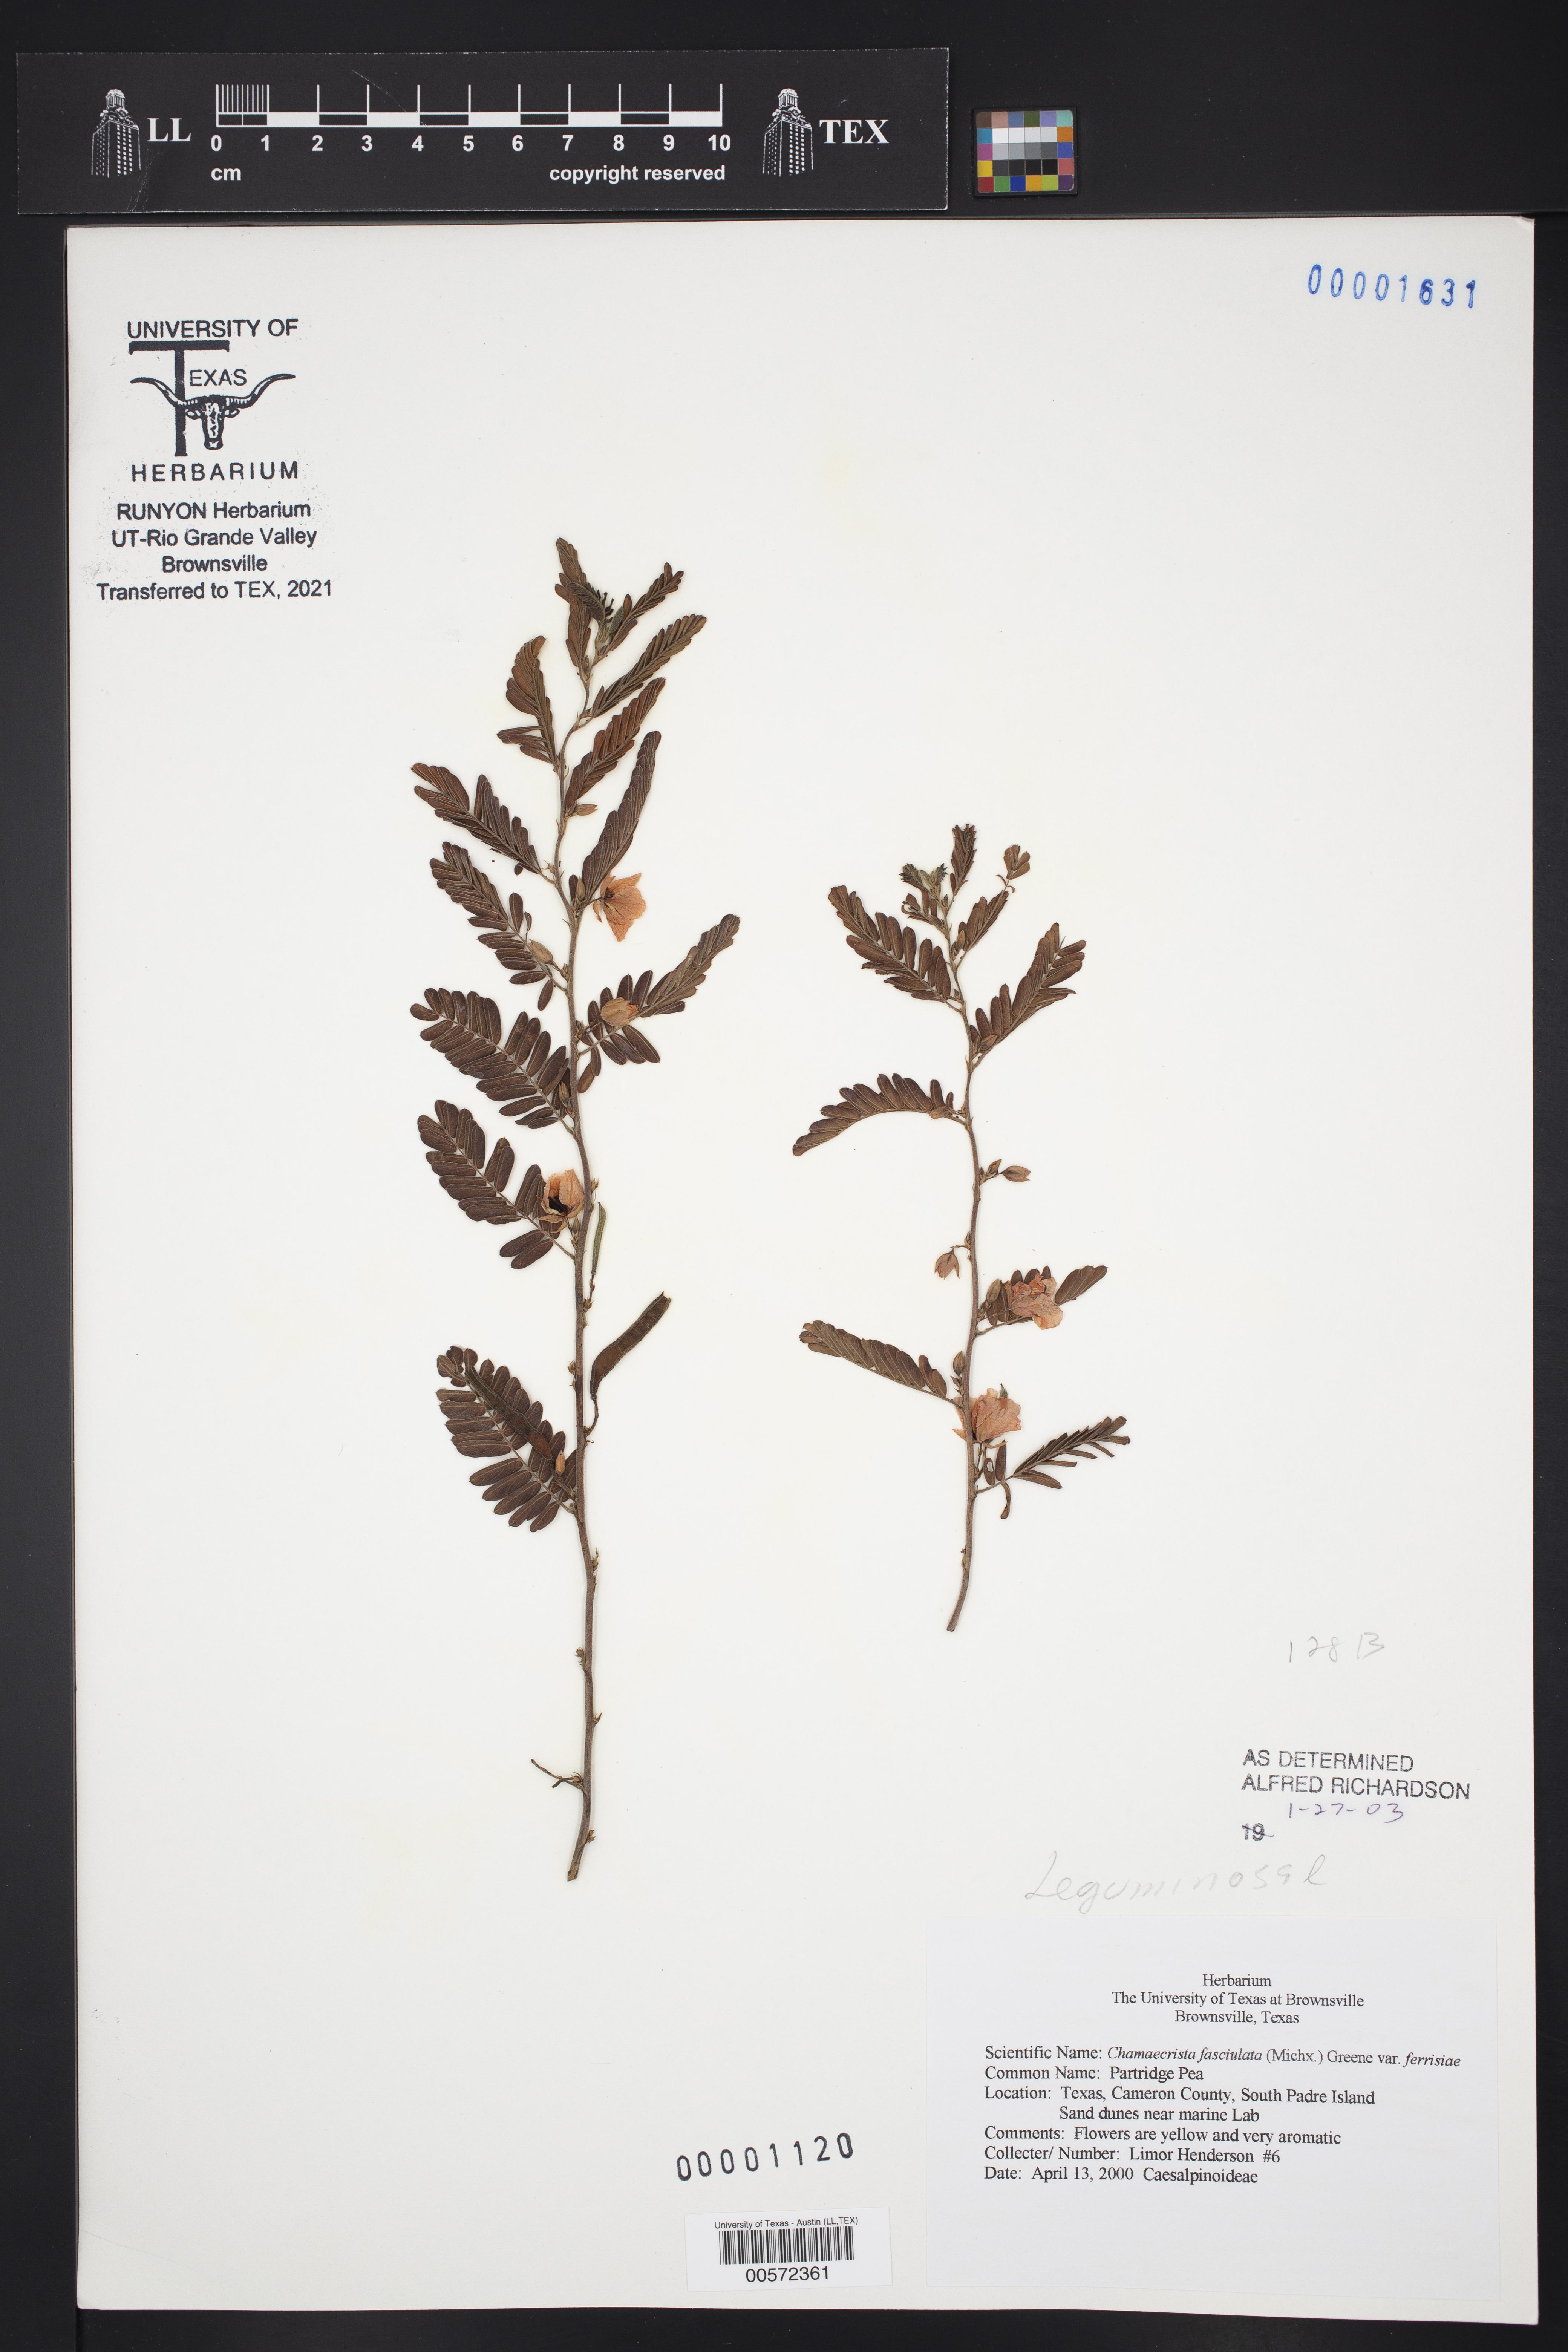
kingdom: Plantae
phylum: Tracheophyta
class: Magnoliopsida
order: Fabales
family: Fabaceae
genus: Chamaecrista
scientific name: Chamaecrista fasciculata
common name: Golden cassia
